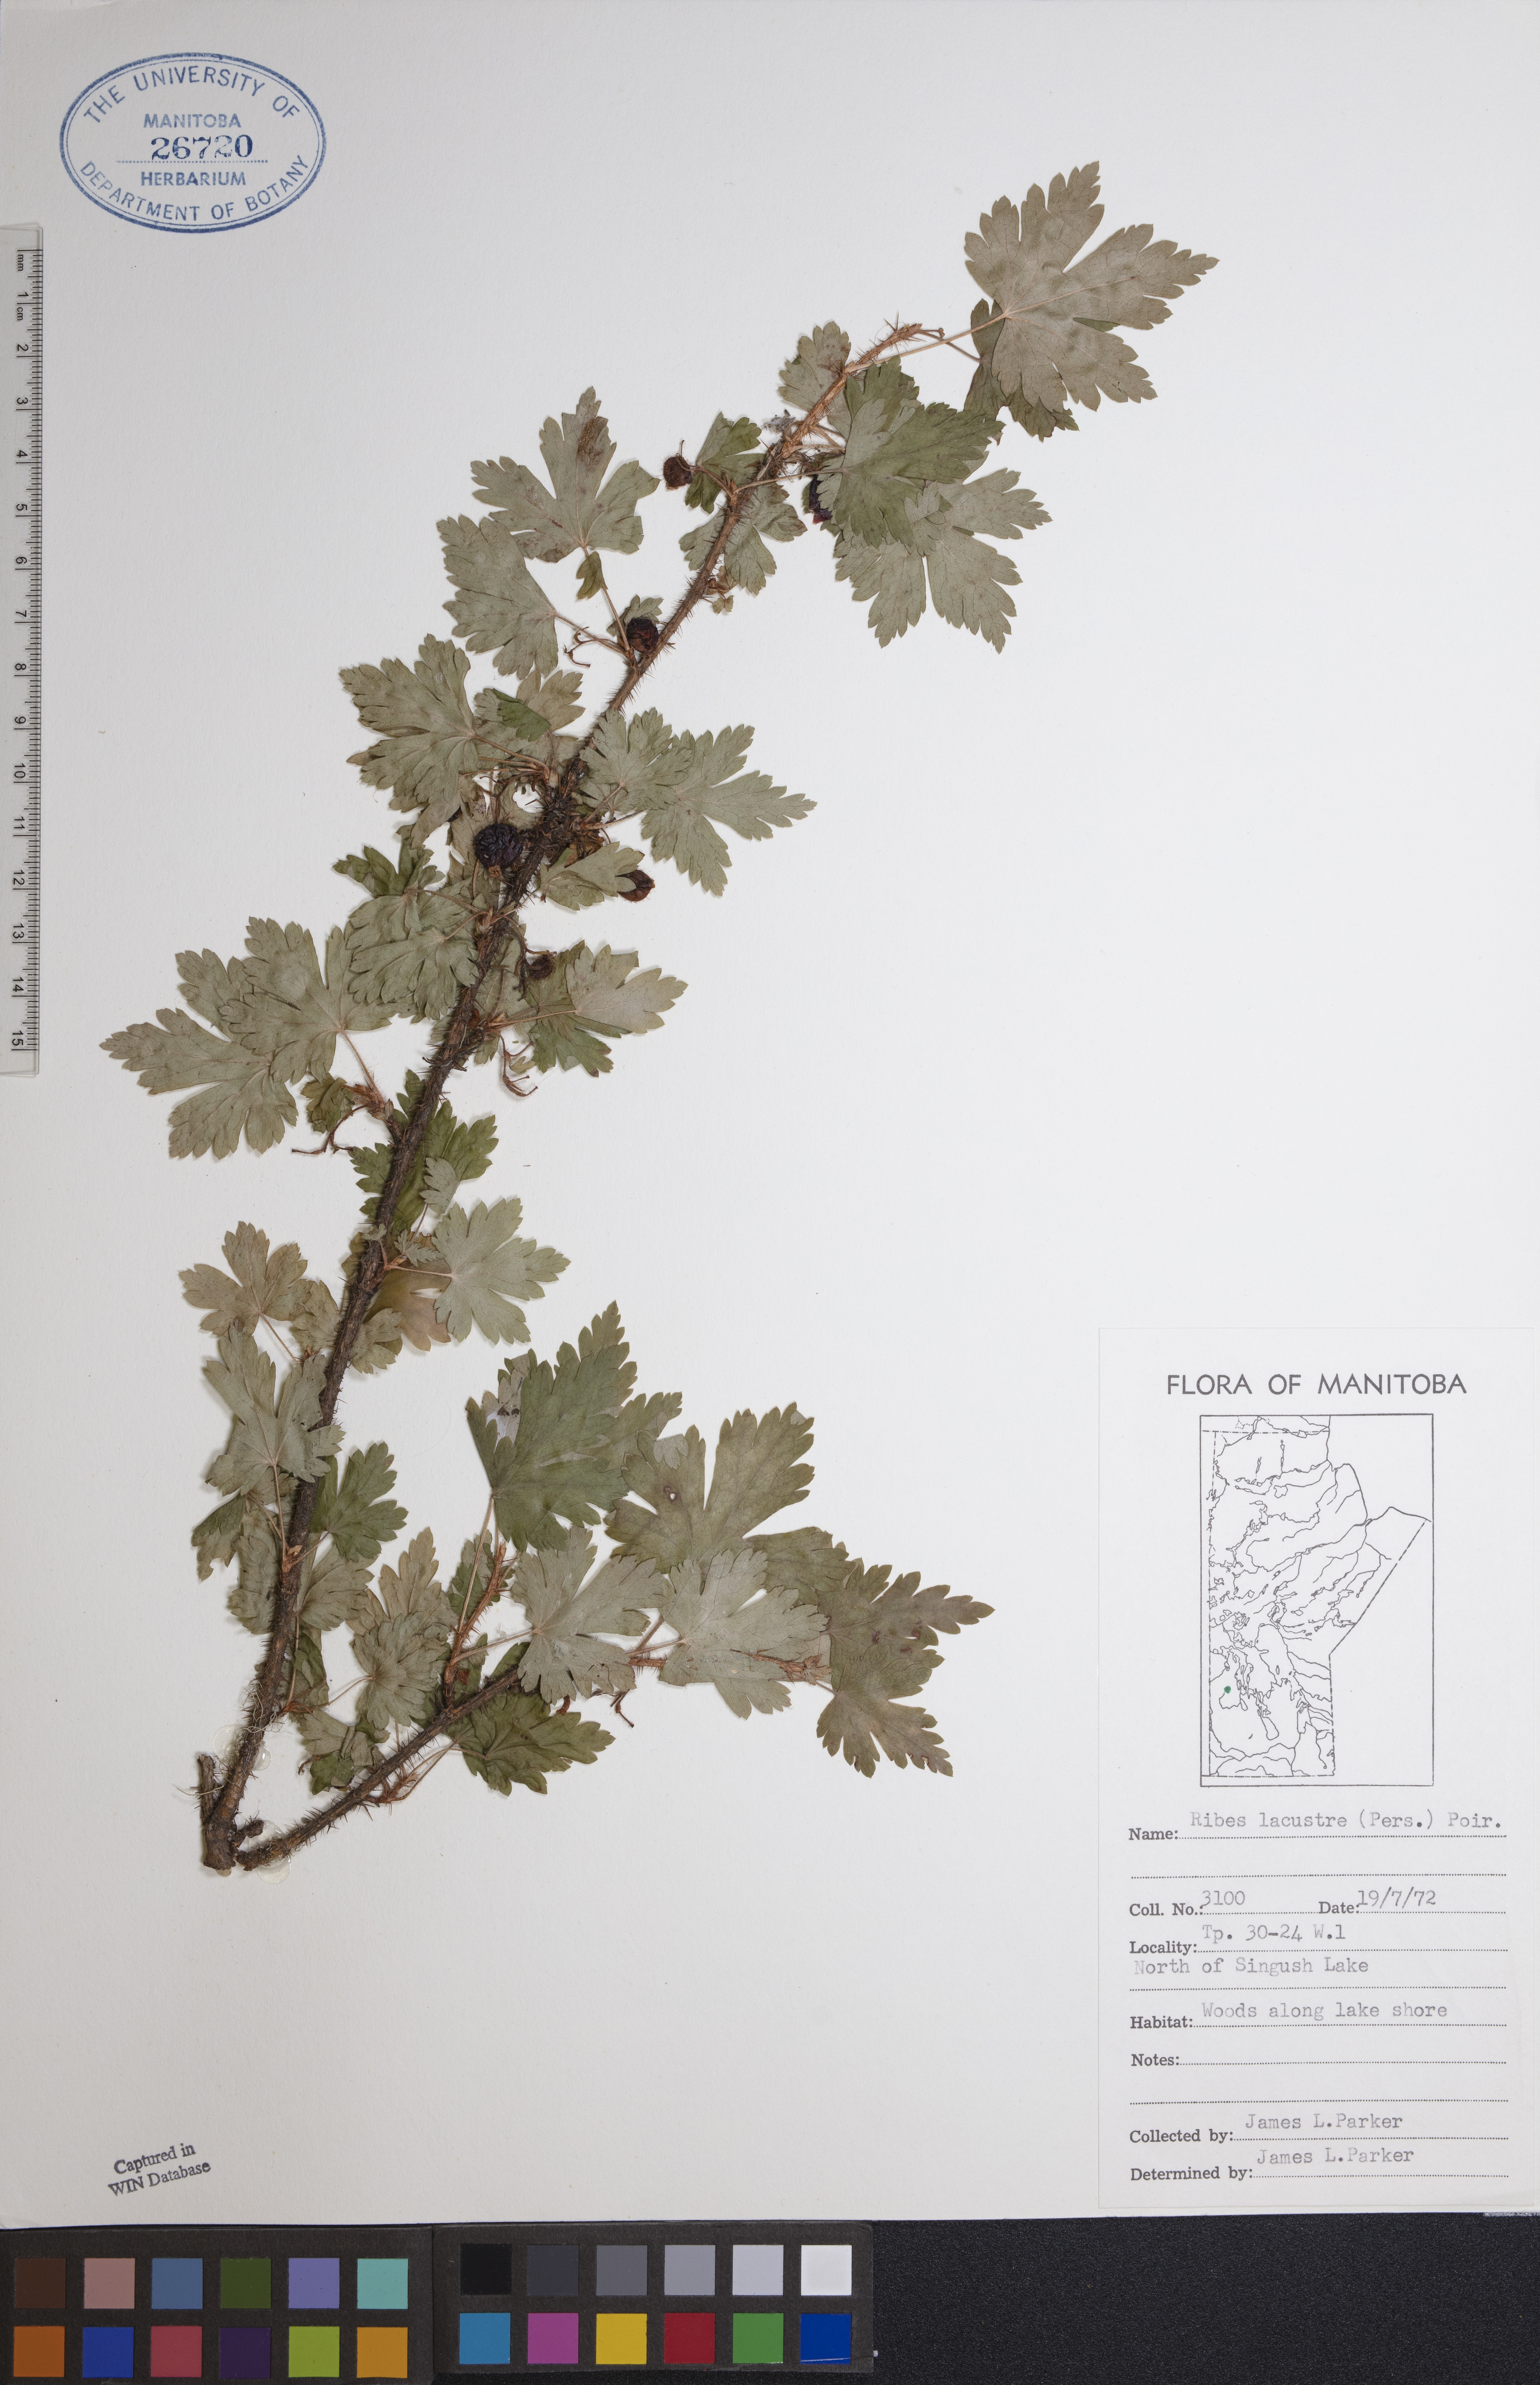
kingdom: Plantae
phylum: Tracheophyta
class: Magnoliopsida
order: Saxifragales
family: Grossulariaceae
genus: Ribes
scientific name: Ribes lacustre
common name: Black gooseberry
